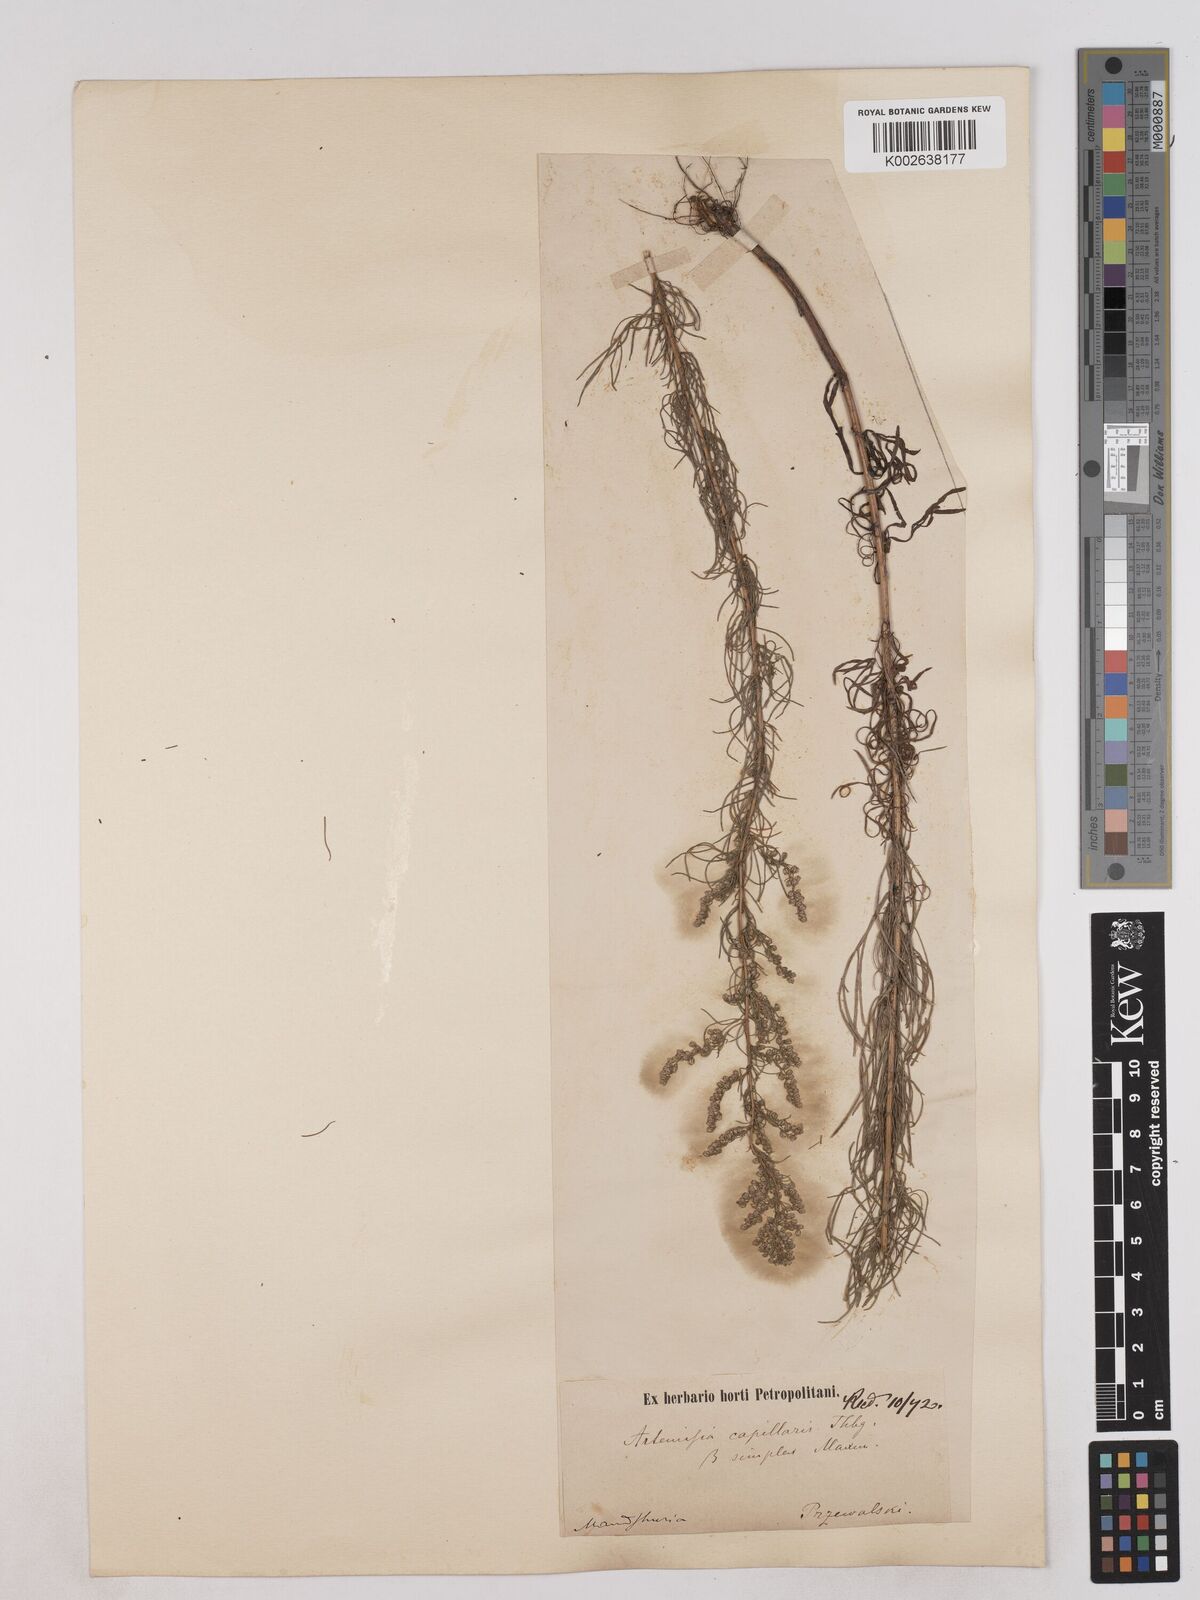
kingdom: Plantae
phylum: Tracheophyta
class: Magnoliopsida
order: Asterales
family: Asteraceae
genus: Artemisia
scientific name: Artemisia capillaris
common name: Yin-chen wormwood
